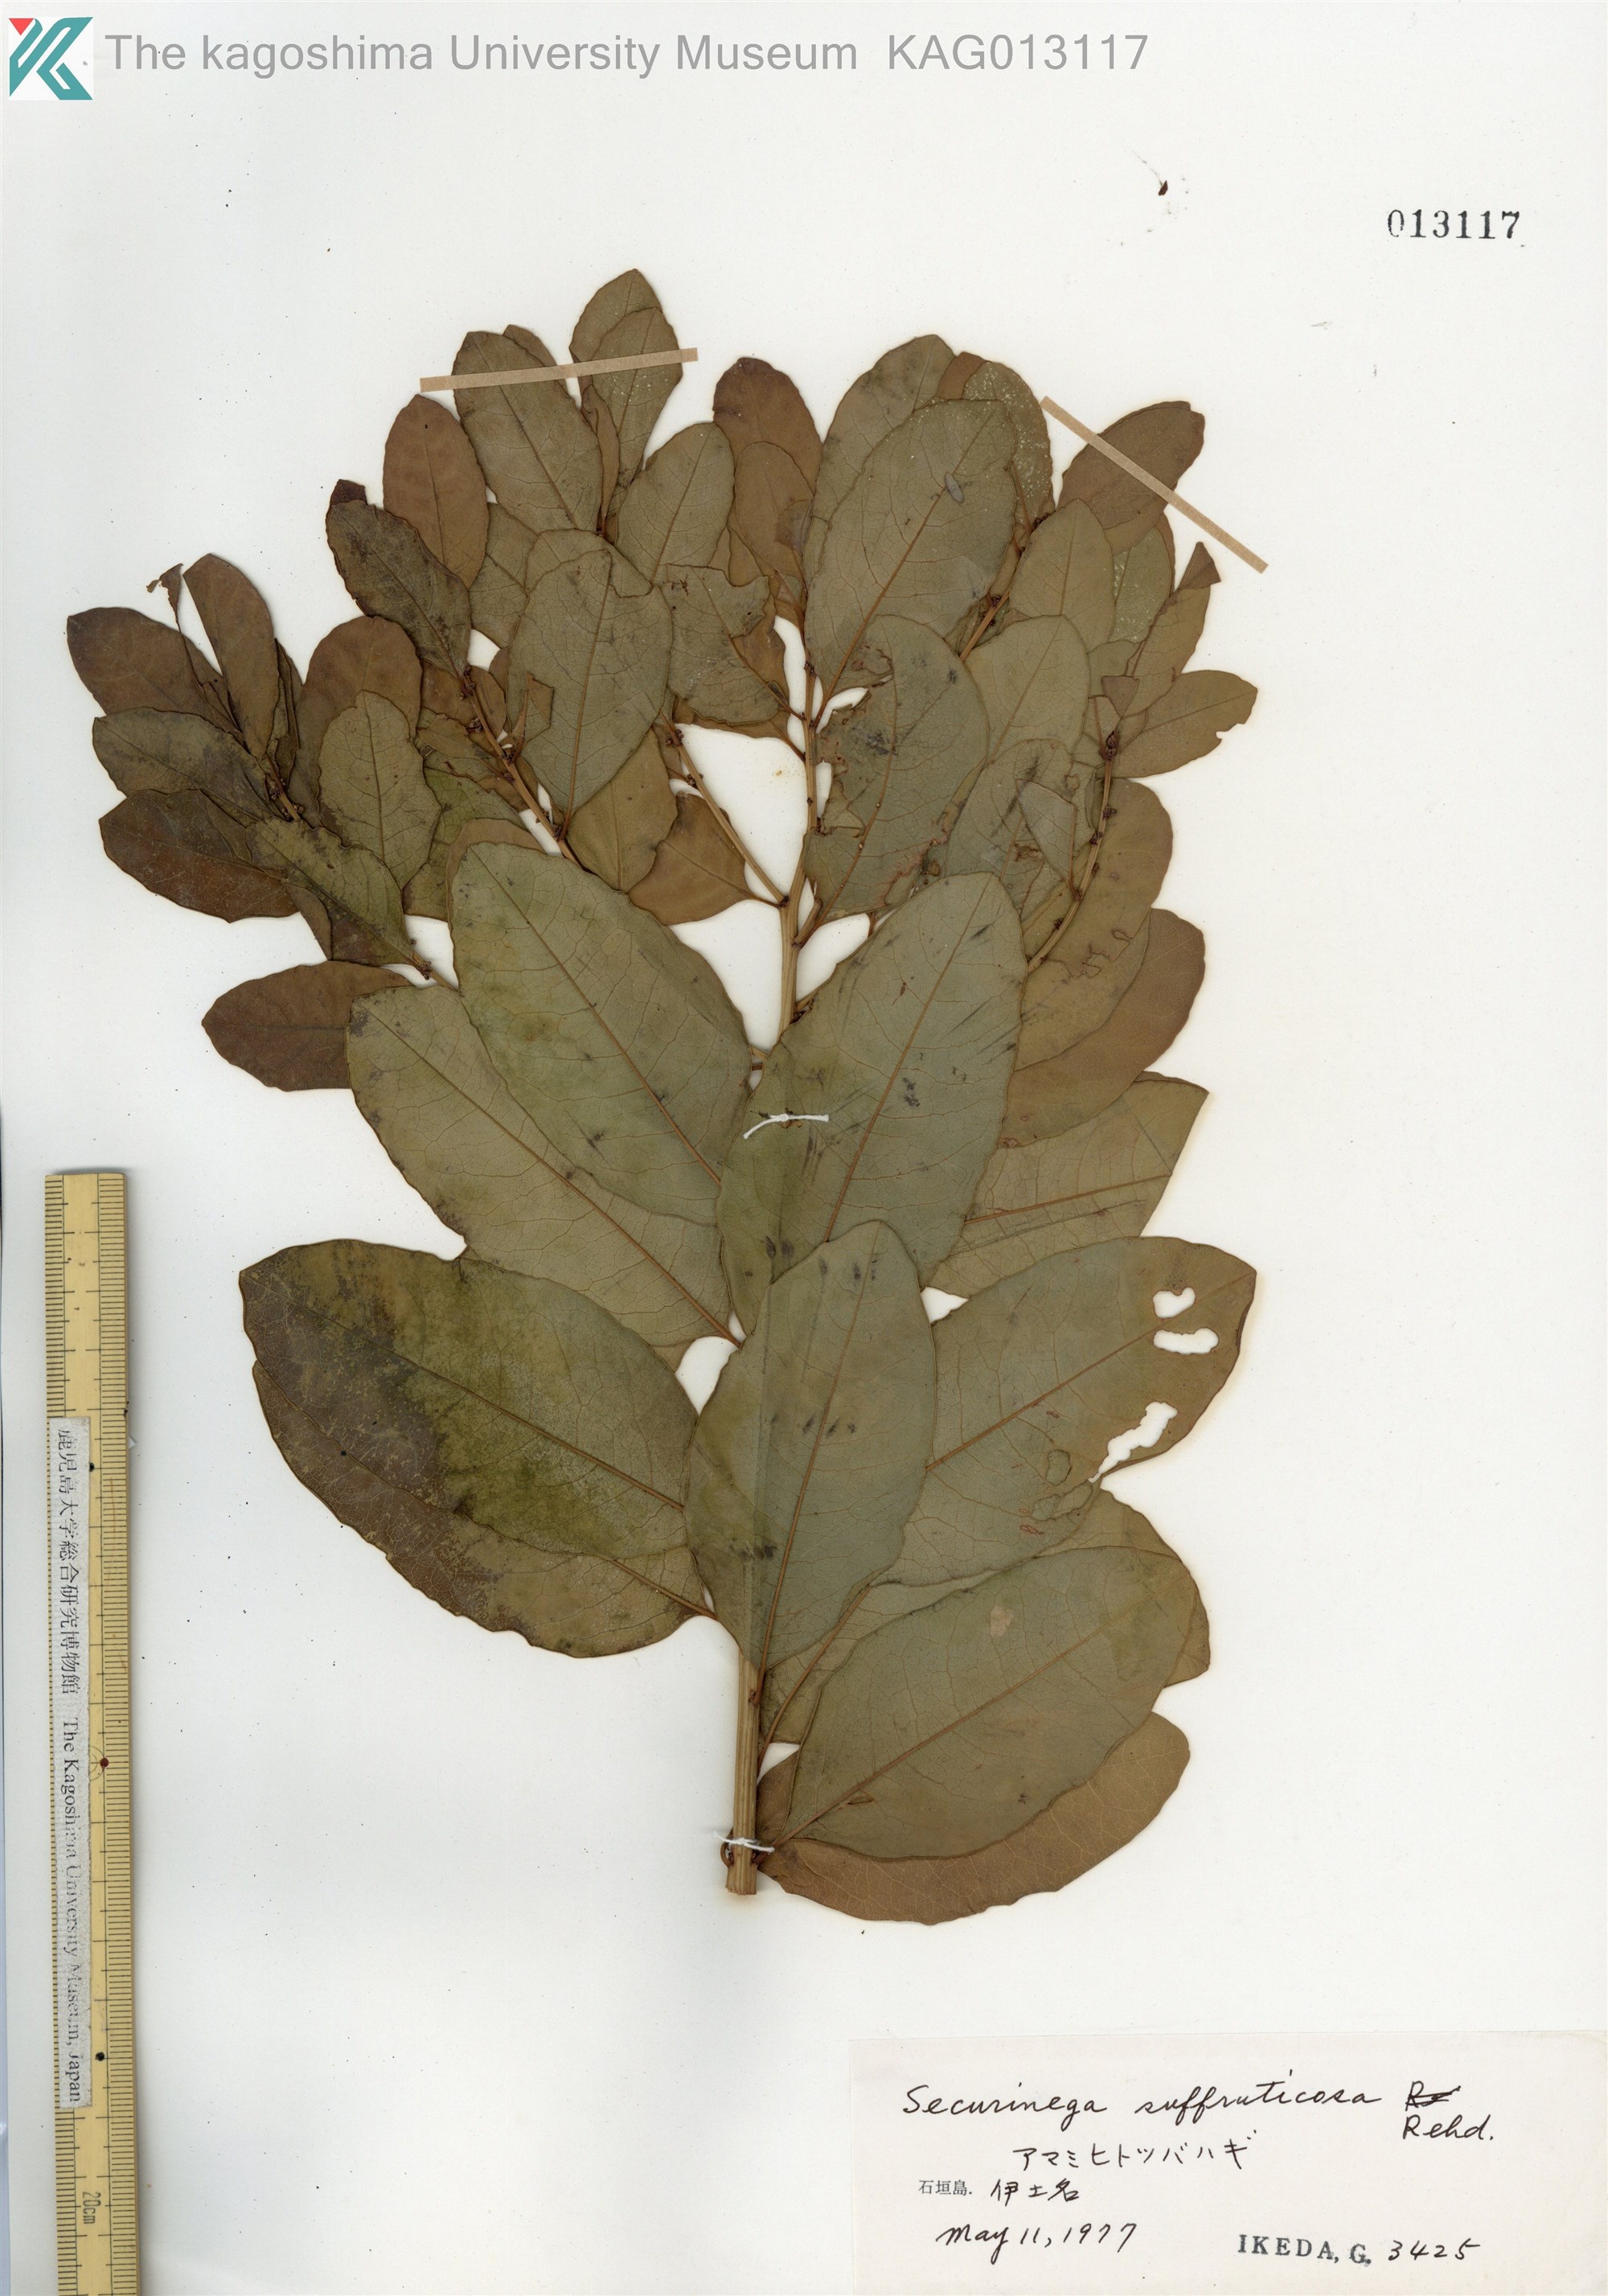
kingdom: Plantae
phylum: Tracheophyta
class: Magnoliopsida
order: Malpighiales
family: Phyllanthaceae
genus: Flueggea
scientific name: Flueggea suffruticosa
